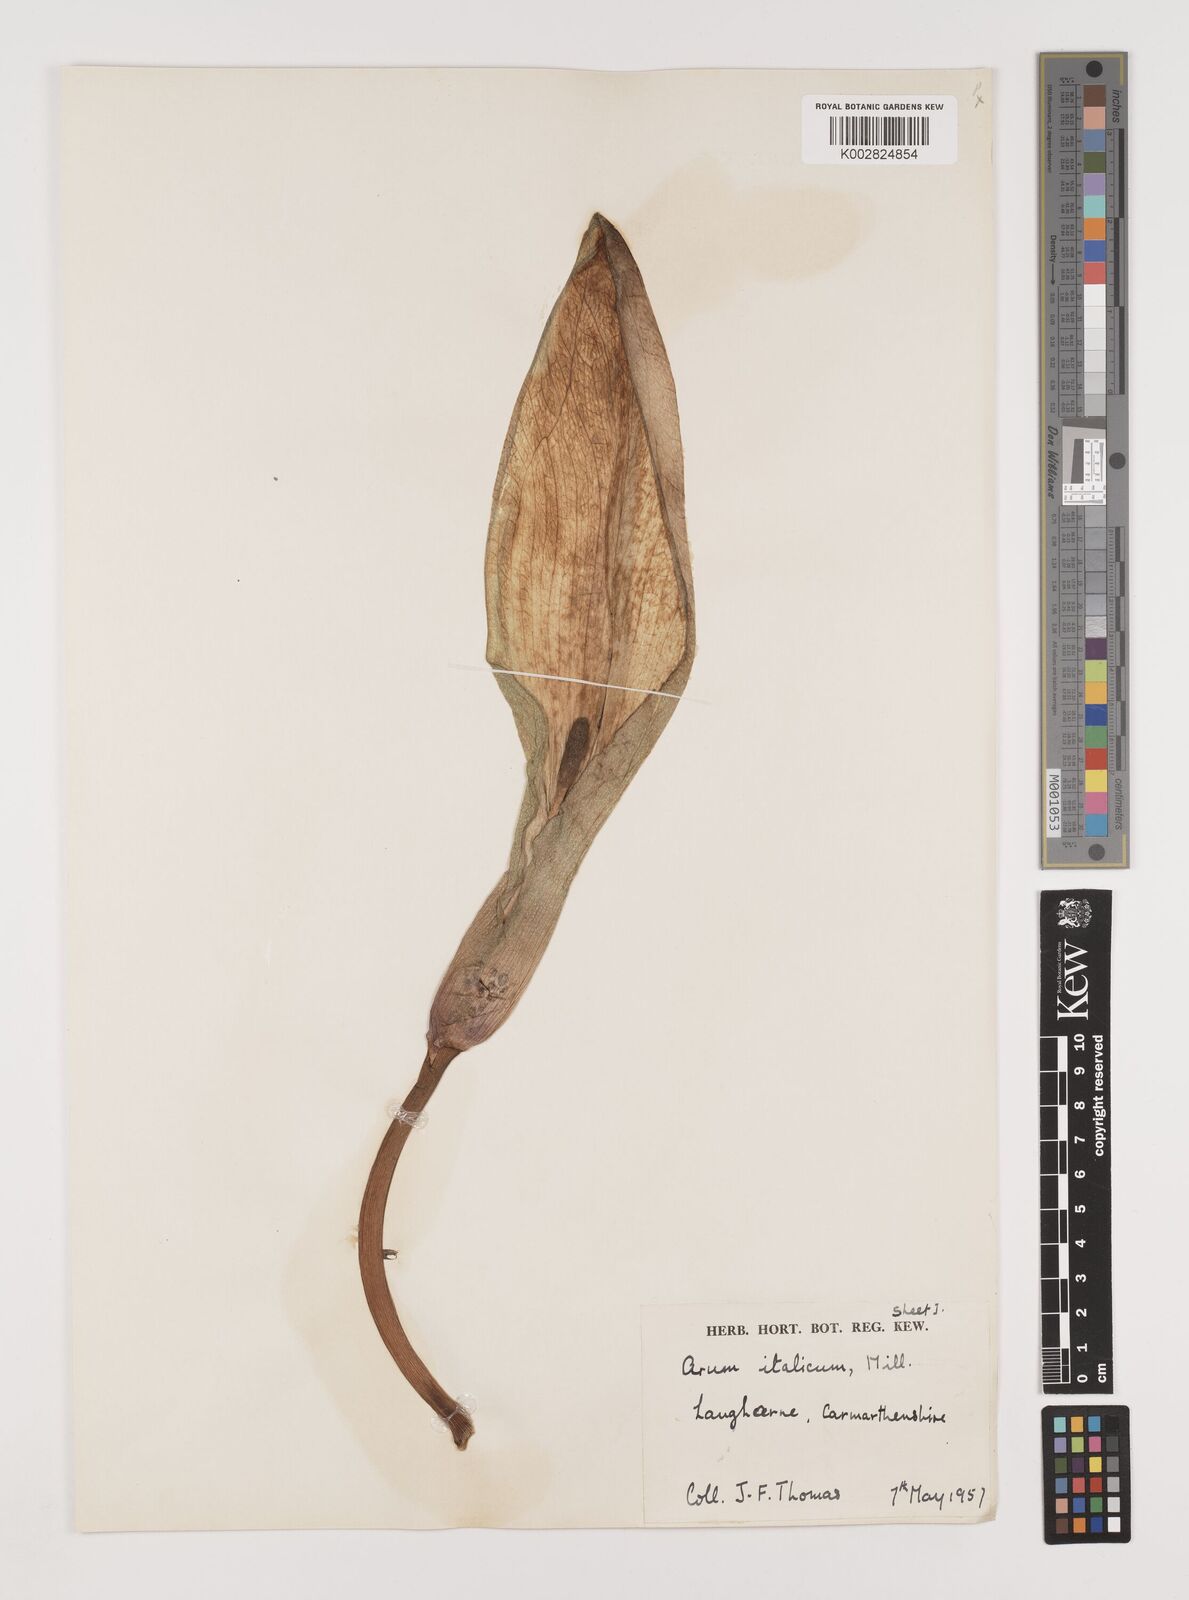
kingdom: Plantae
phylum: Tracheophyta
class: Liliopsida
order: Alismatales
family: Araceae
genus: Arum
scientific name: Arum italicum
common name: Italian lords-and-ladies
